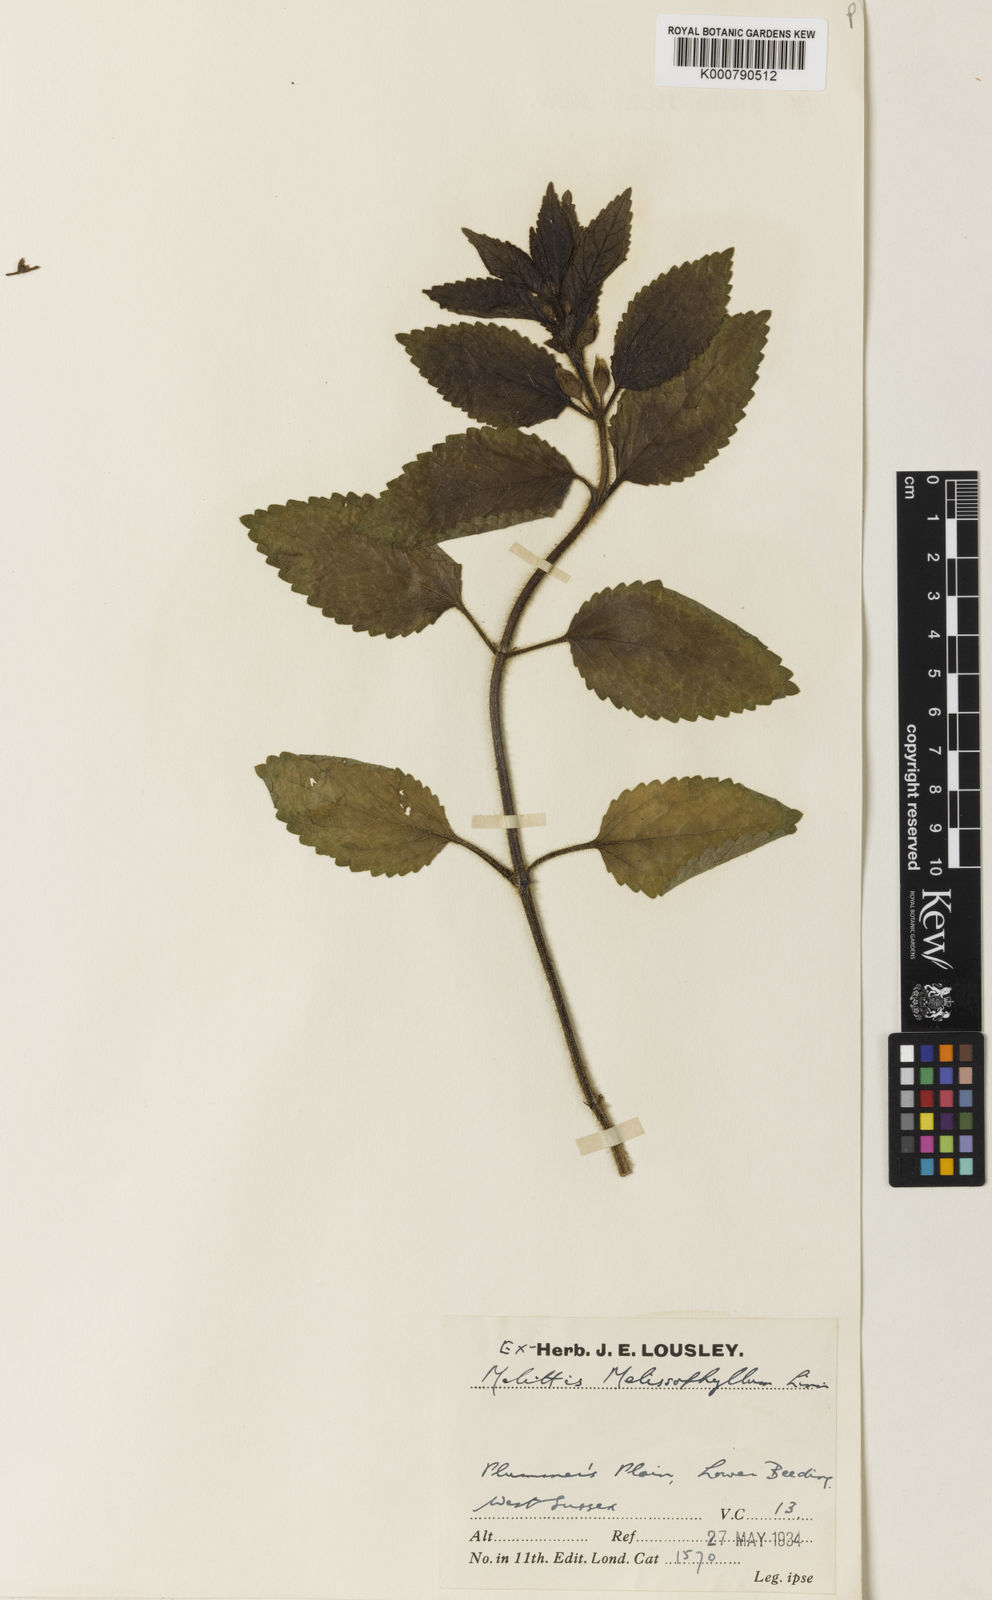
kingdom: Plantae
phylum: Tracheophyta
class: Magnoliopsida
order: Lamiales
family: Lamiaceae
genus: Melittis
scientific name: Melittis melissophyllum
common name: Bastard balm
